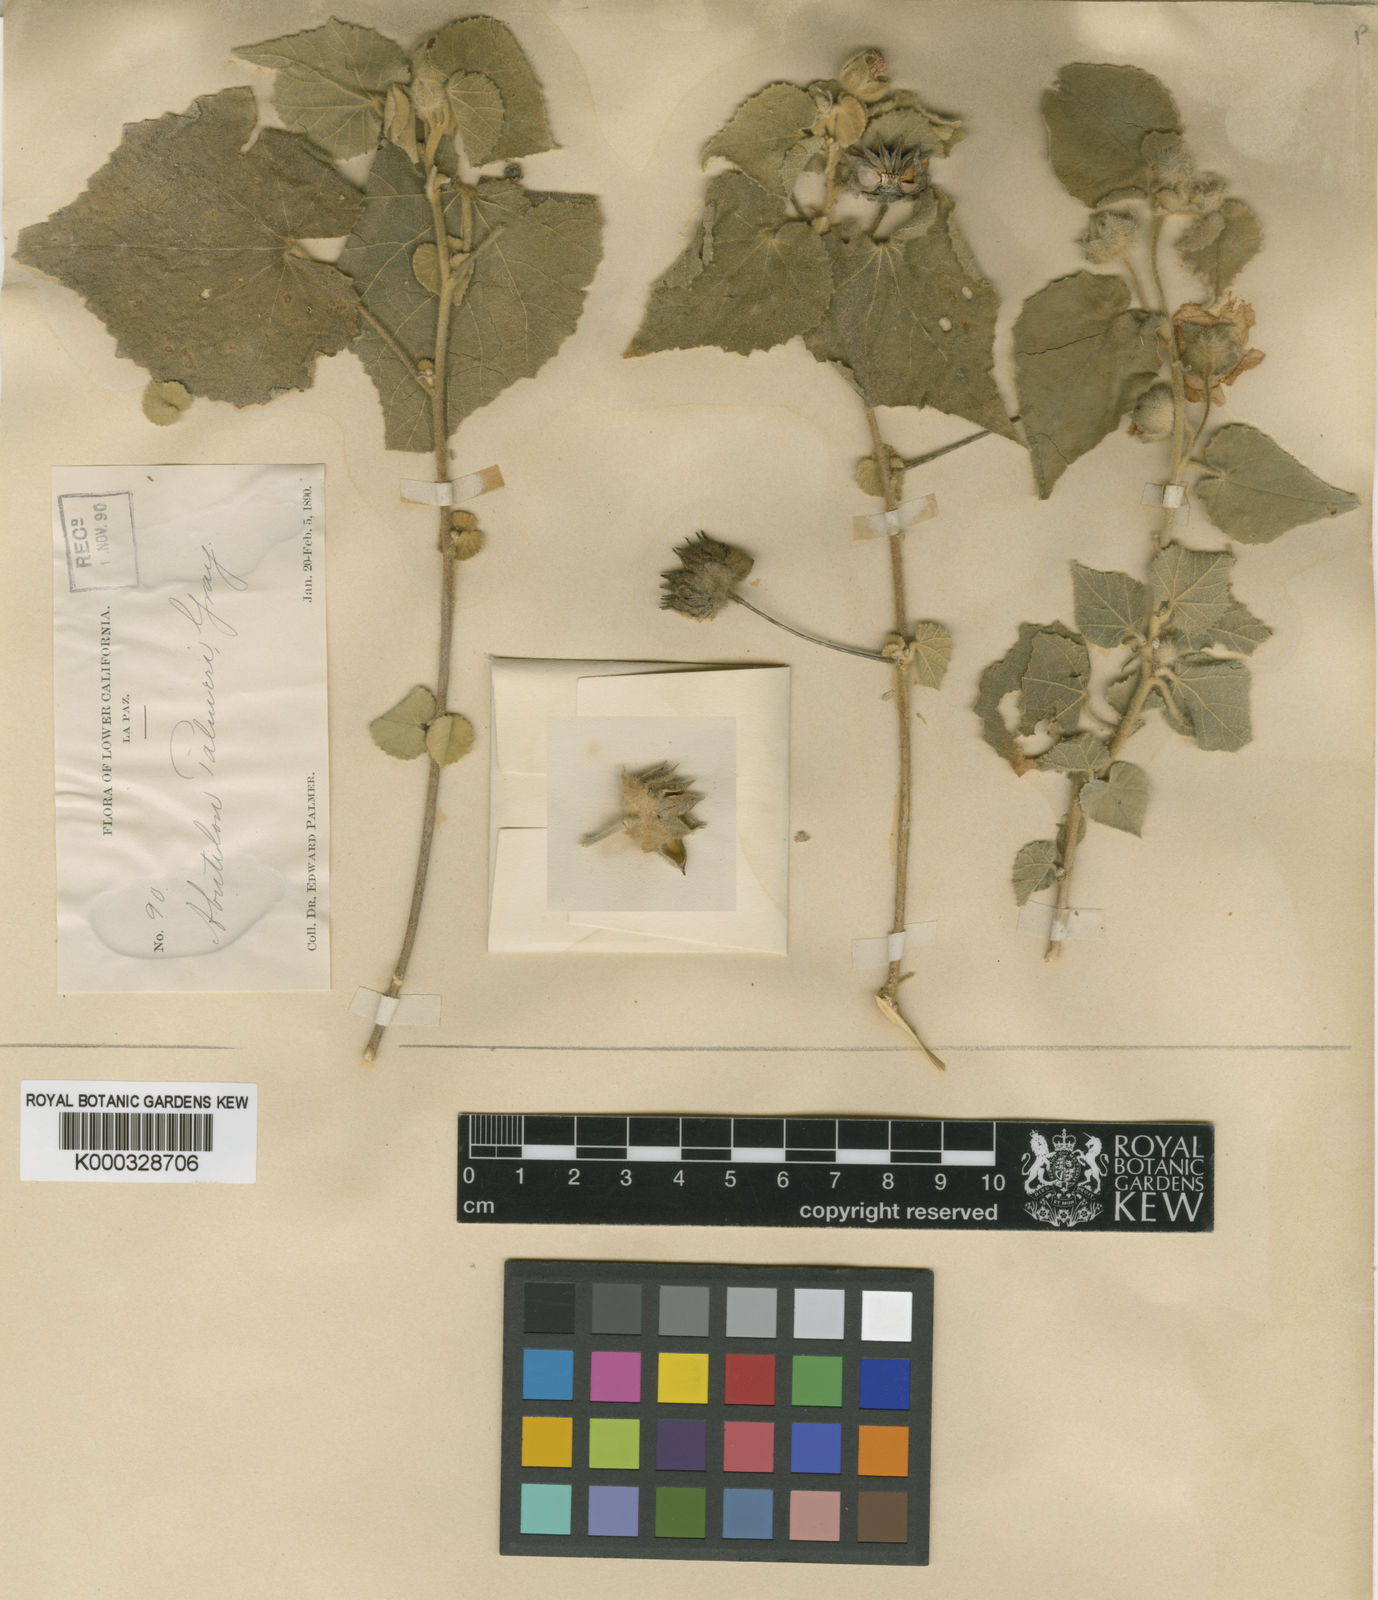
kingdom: Plantae
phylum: Tracheophyta
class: Magnoliopsida
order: Malvales
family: Malvaceae
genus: Abutilon
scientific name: Abutilon palmeri
